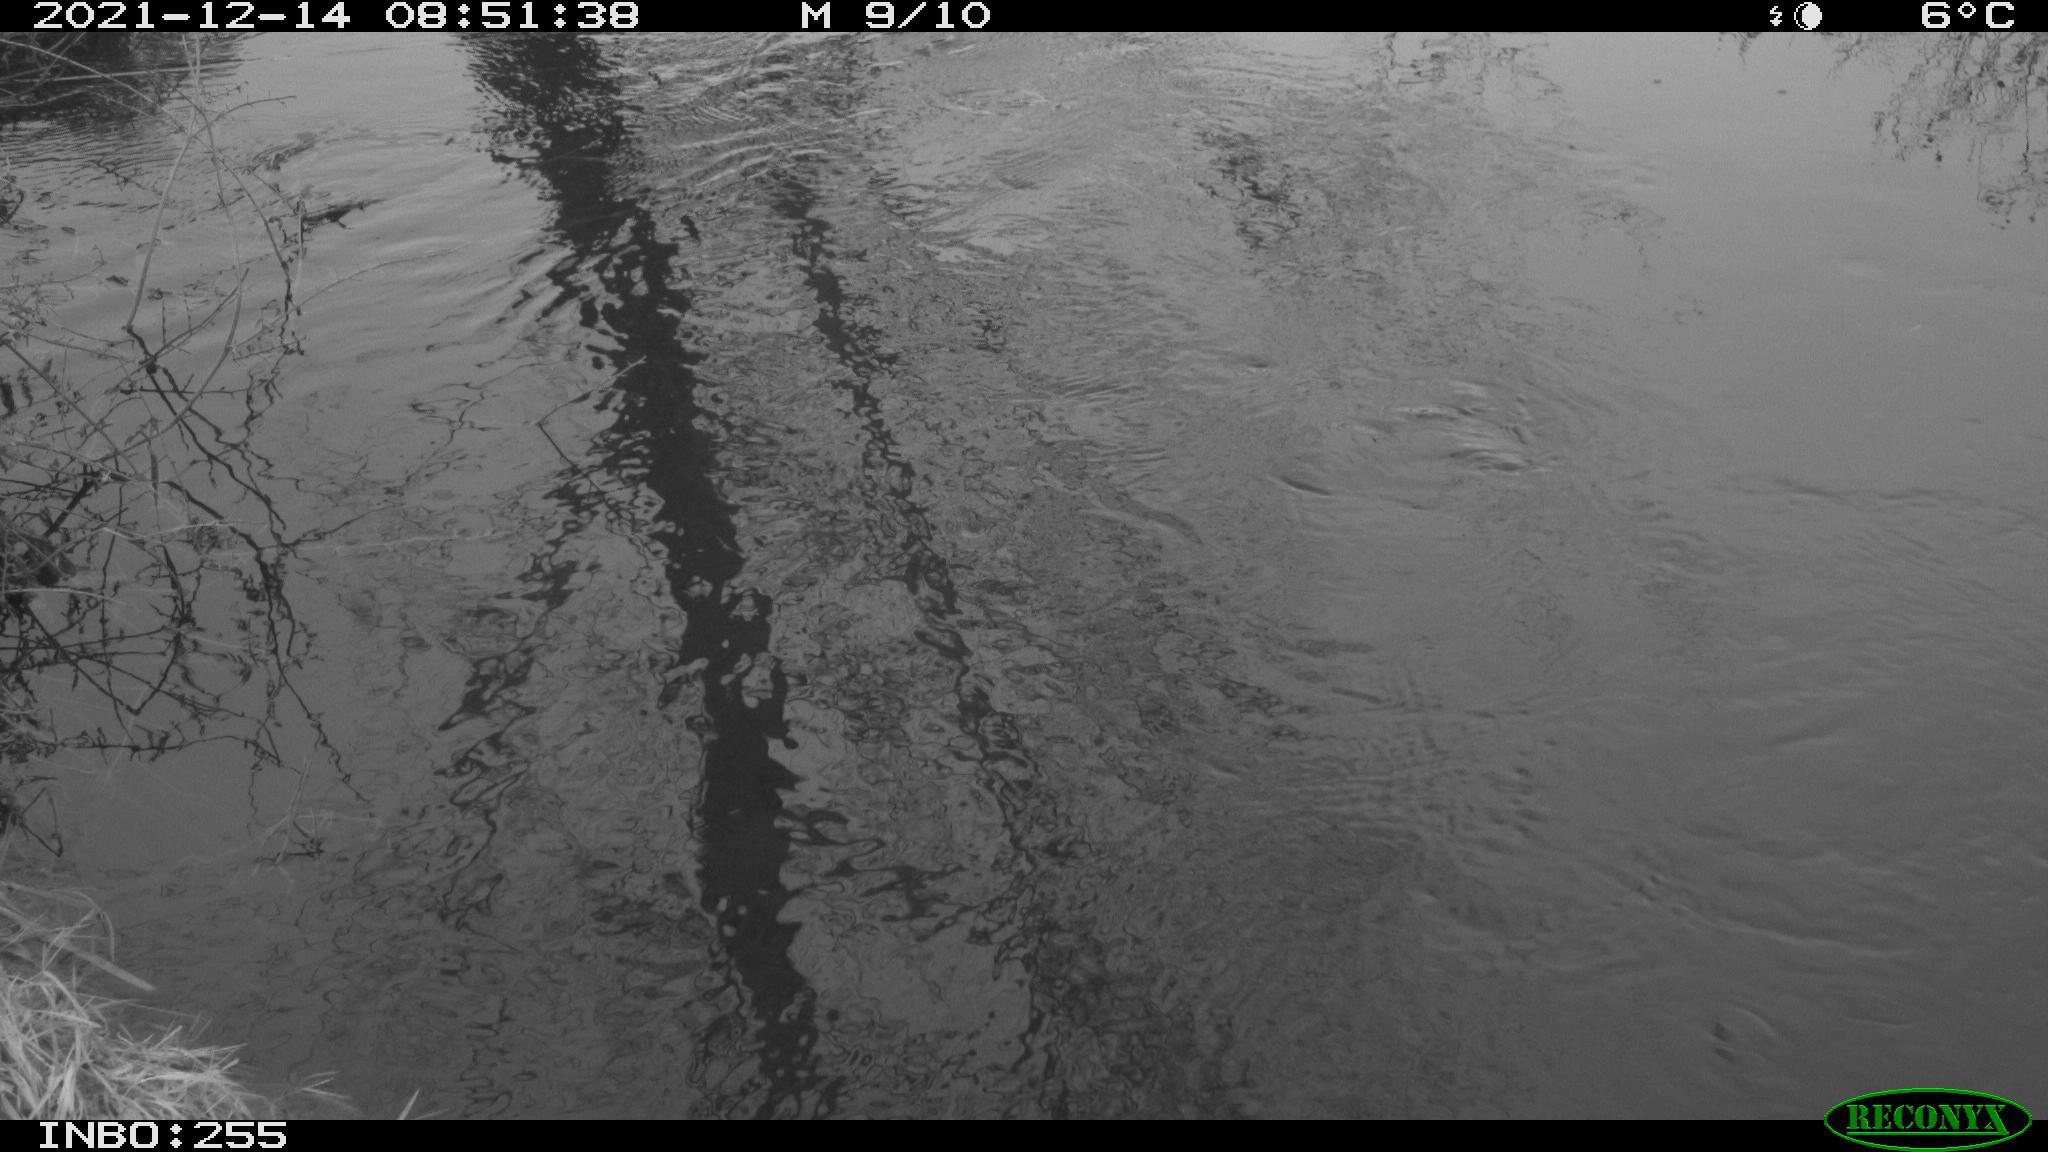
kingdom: Animalia
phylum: Chordata
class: Aves
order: Gruiformes
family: Rallidae
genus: Gallinula
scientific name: Gallinula chloropus
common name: Common moorhen
